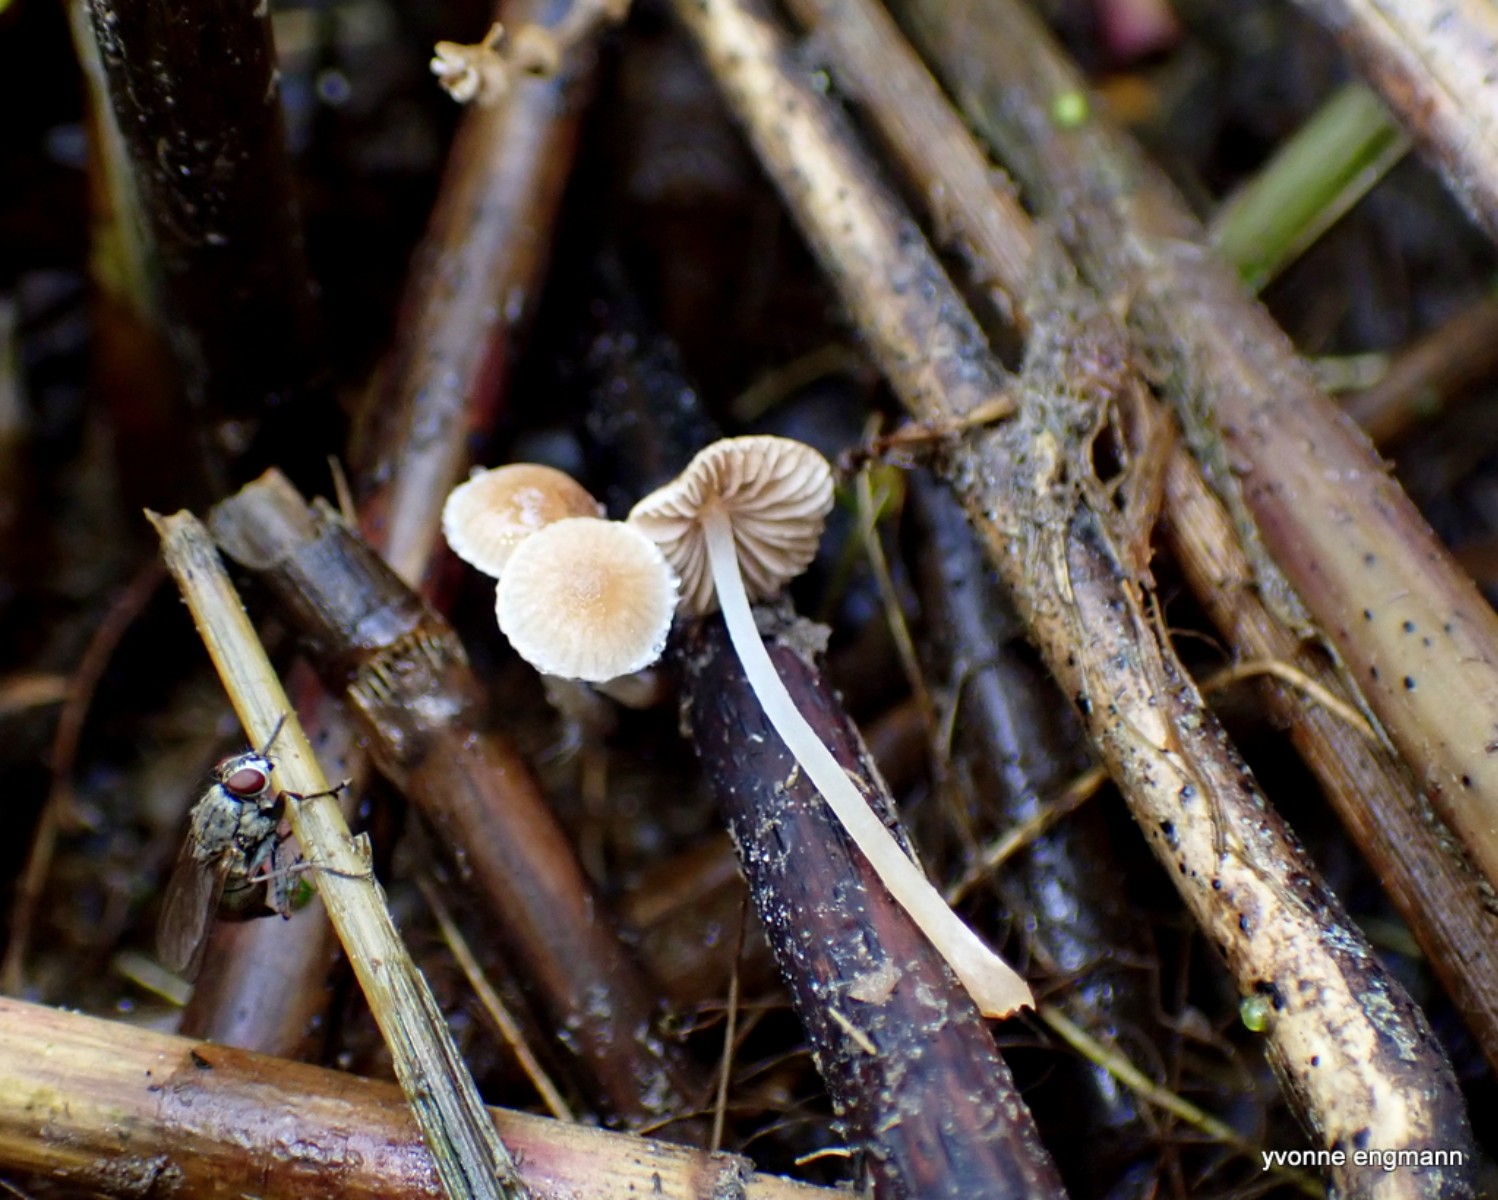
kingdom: Fungi
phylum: Basidiomycota
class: Agaricomycetes
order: Agaricales
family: Psathyrellaceae
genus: Psathyrella
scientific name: Psathyrella
